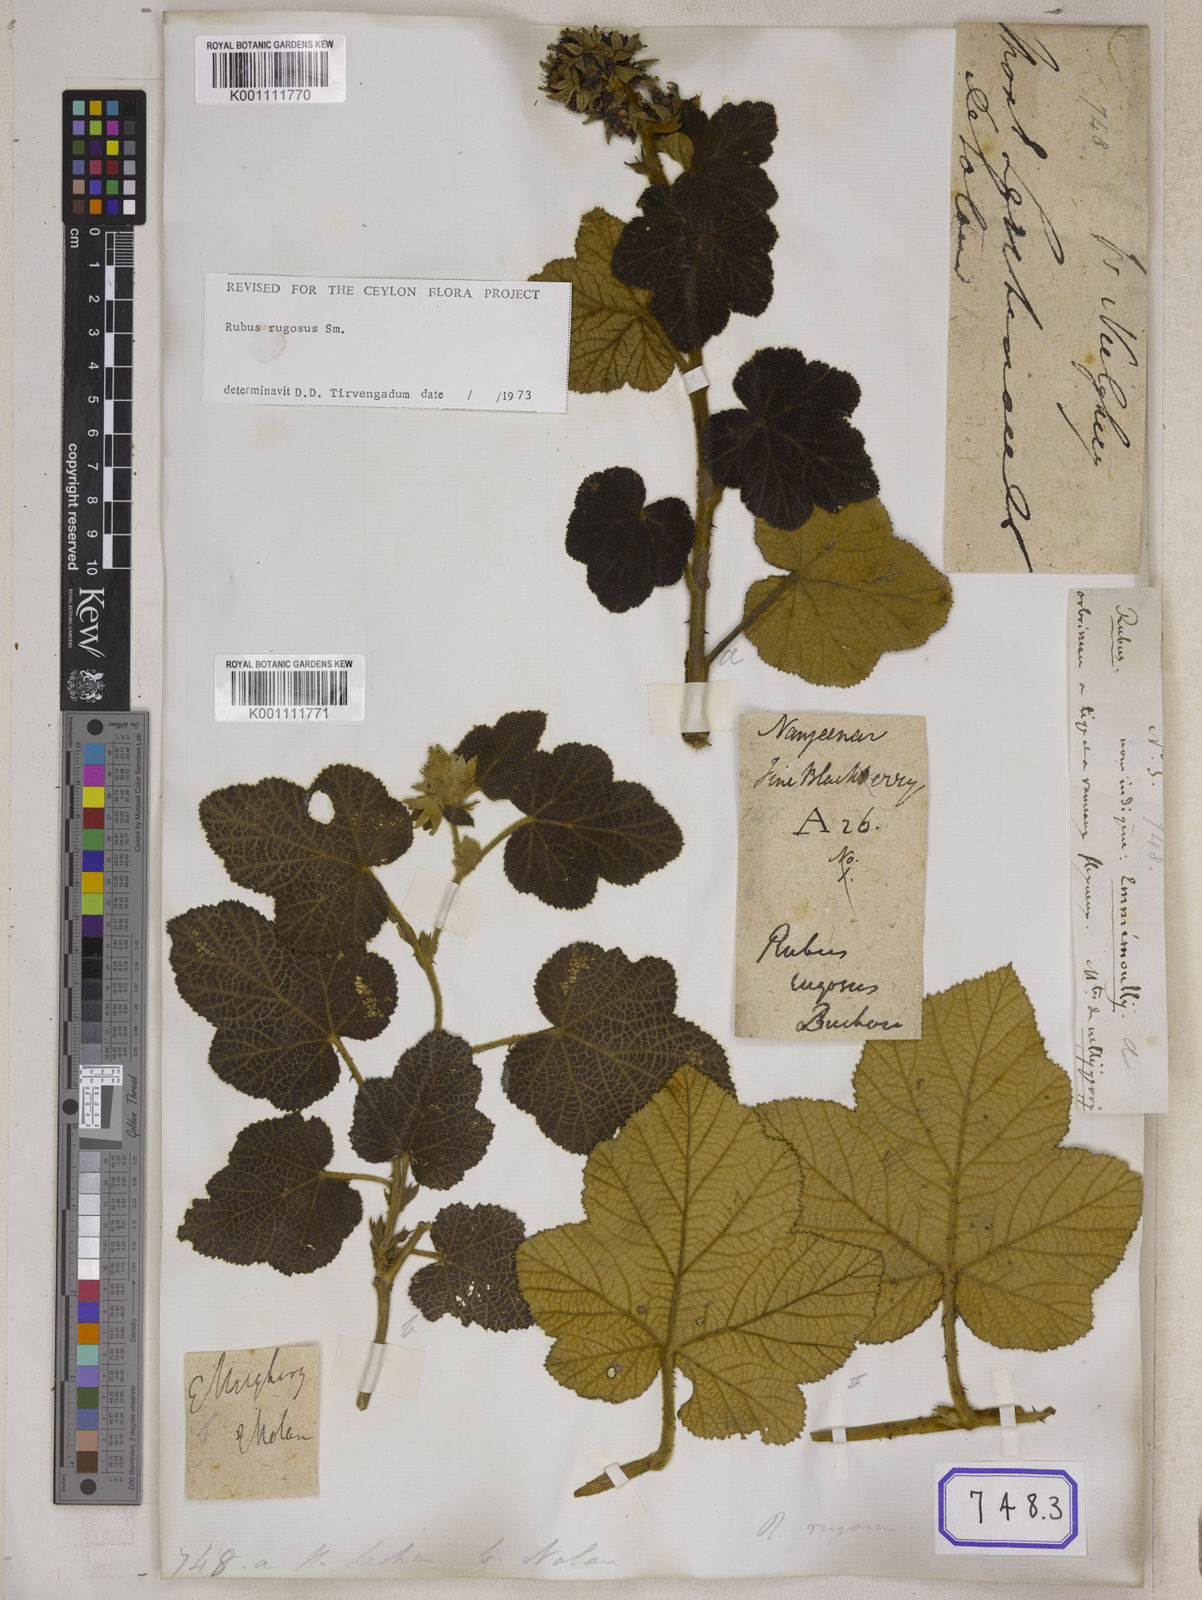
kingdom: Plantae
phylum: Tracheophyta
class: Magnoliopsida
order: Rosales
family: Rosaceae
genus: Rubus
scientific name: Rubus
